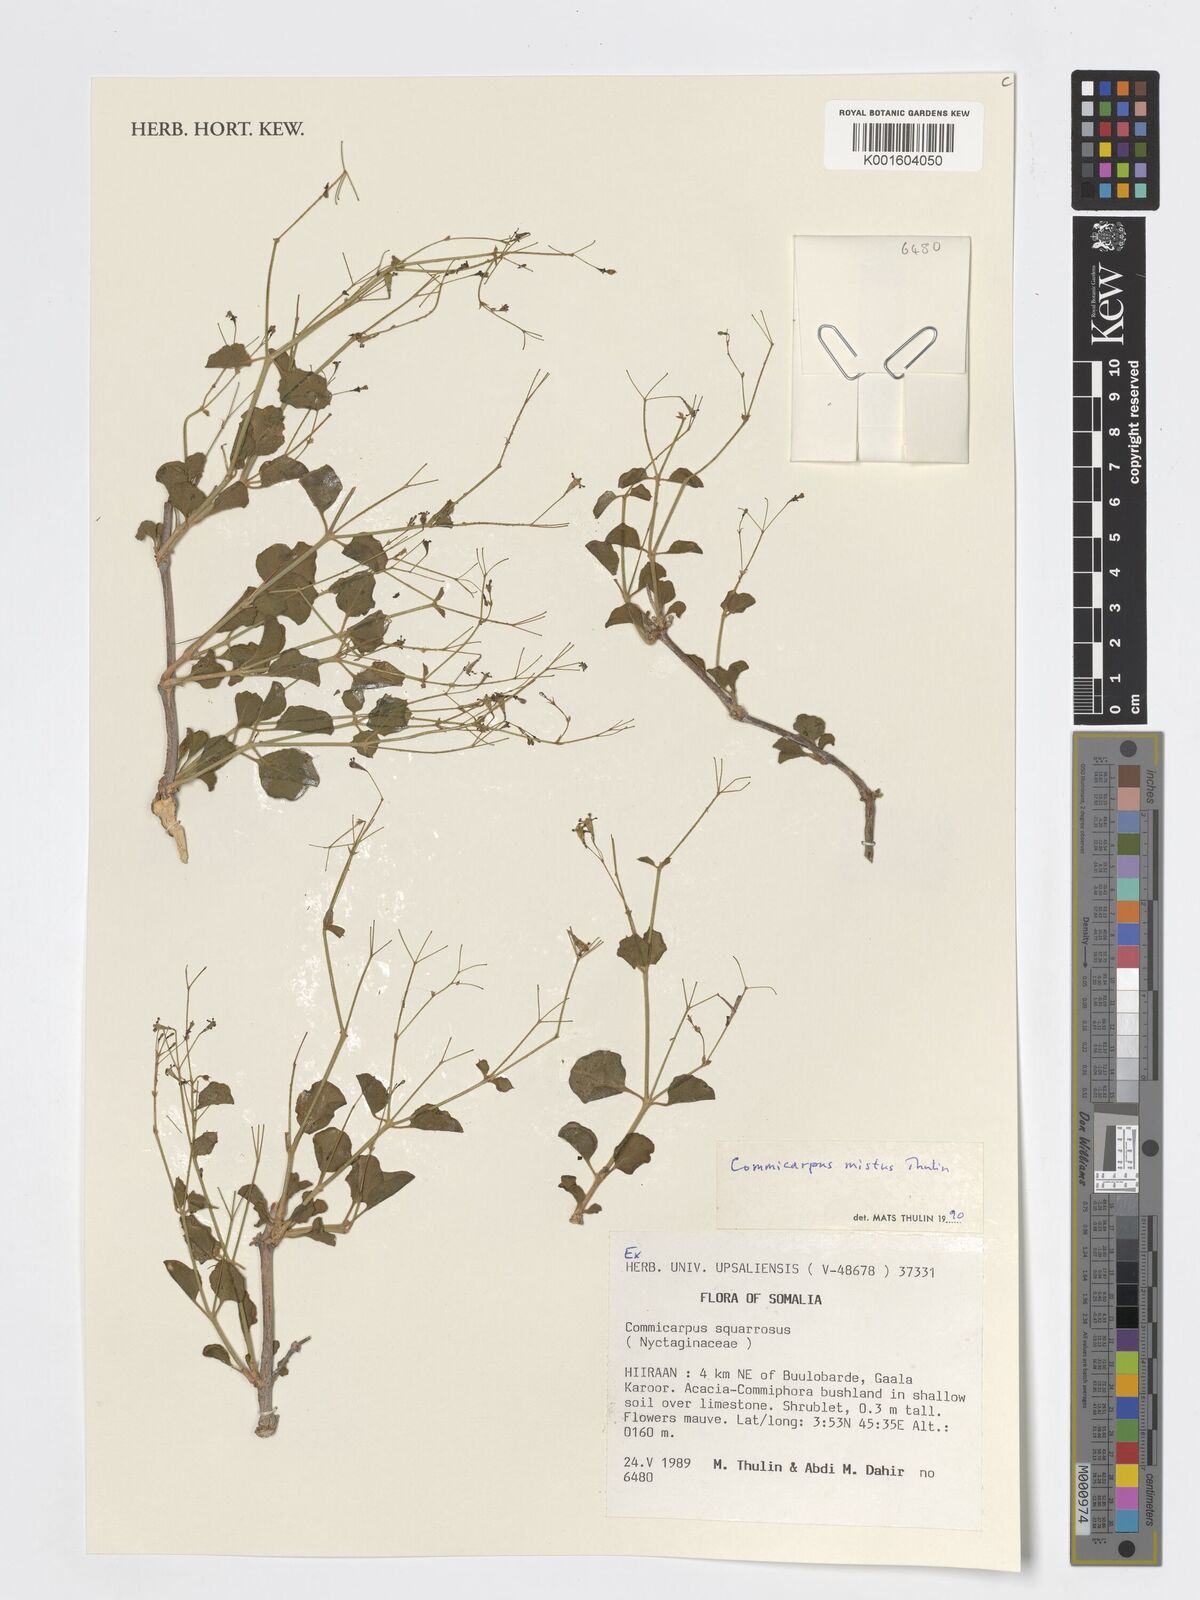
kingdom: Plantae
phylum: Tracheophyta
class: Magnoliopsida
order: Caryophyllales
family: Nyctaginaceae
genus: Commicarpus
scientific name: Commicarpus mistus
